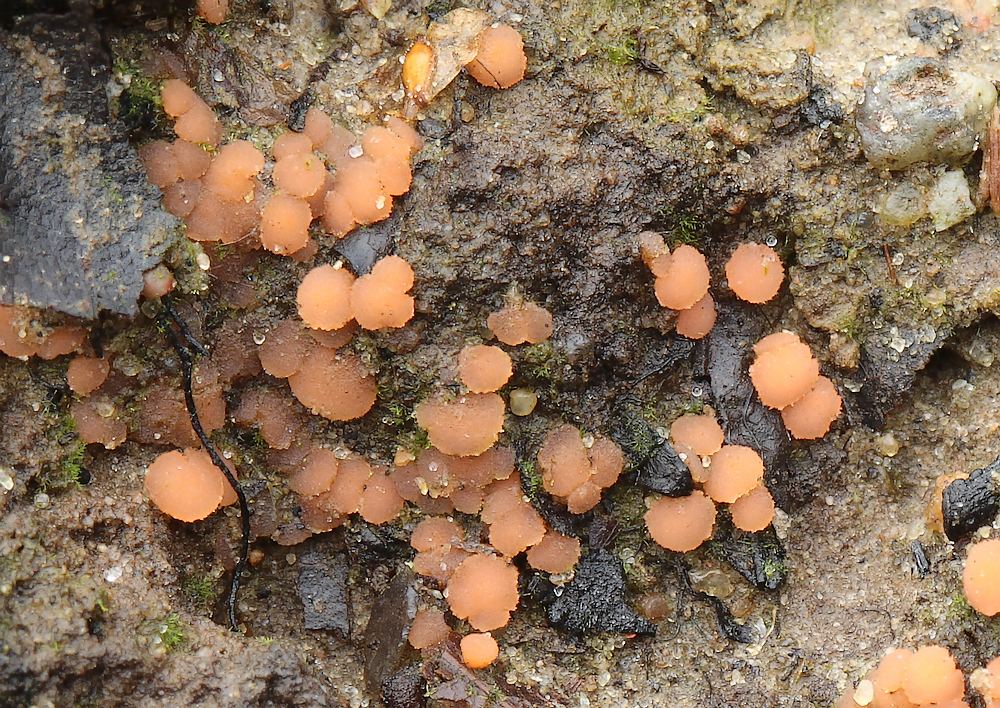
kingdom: Fungi
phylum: Ascomycota
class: Pezizomycetes
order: Pezizales
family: Pyronemataceae
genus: Pyronema
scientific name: Pyronema omphalodes
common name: glat askebæger
